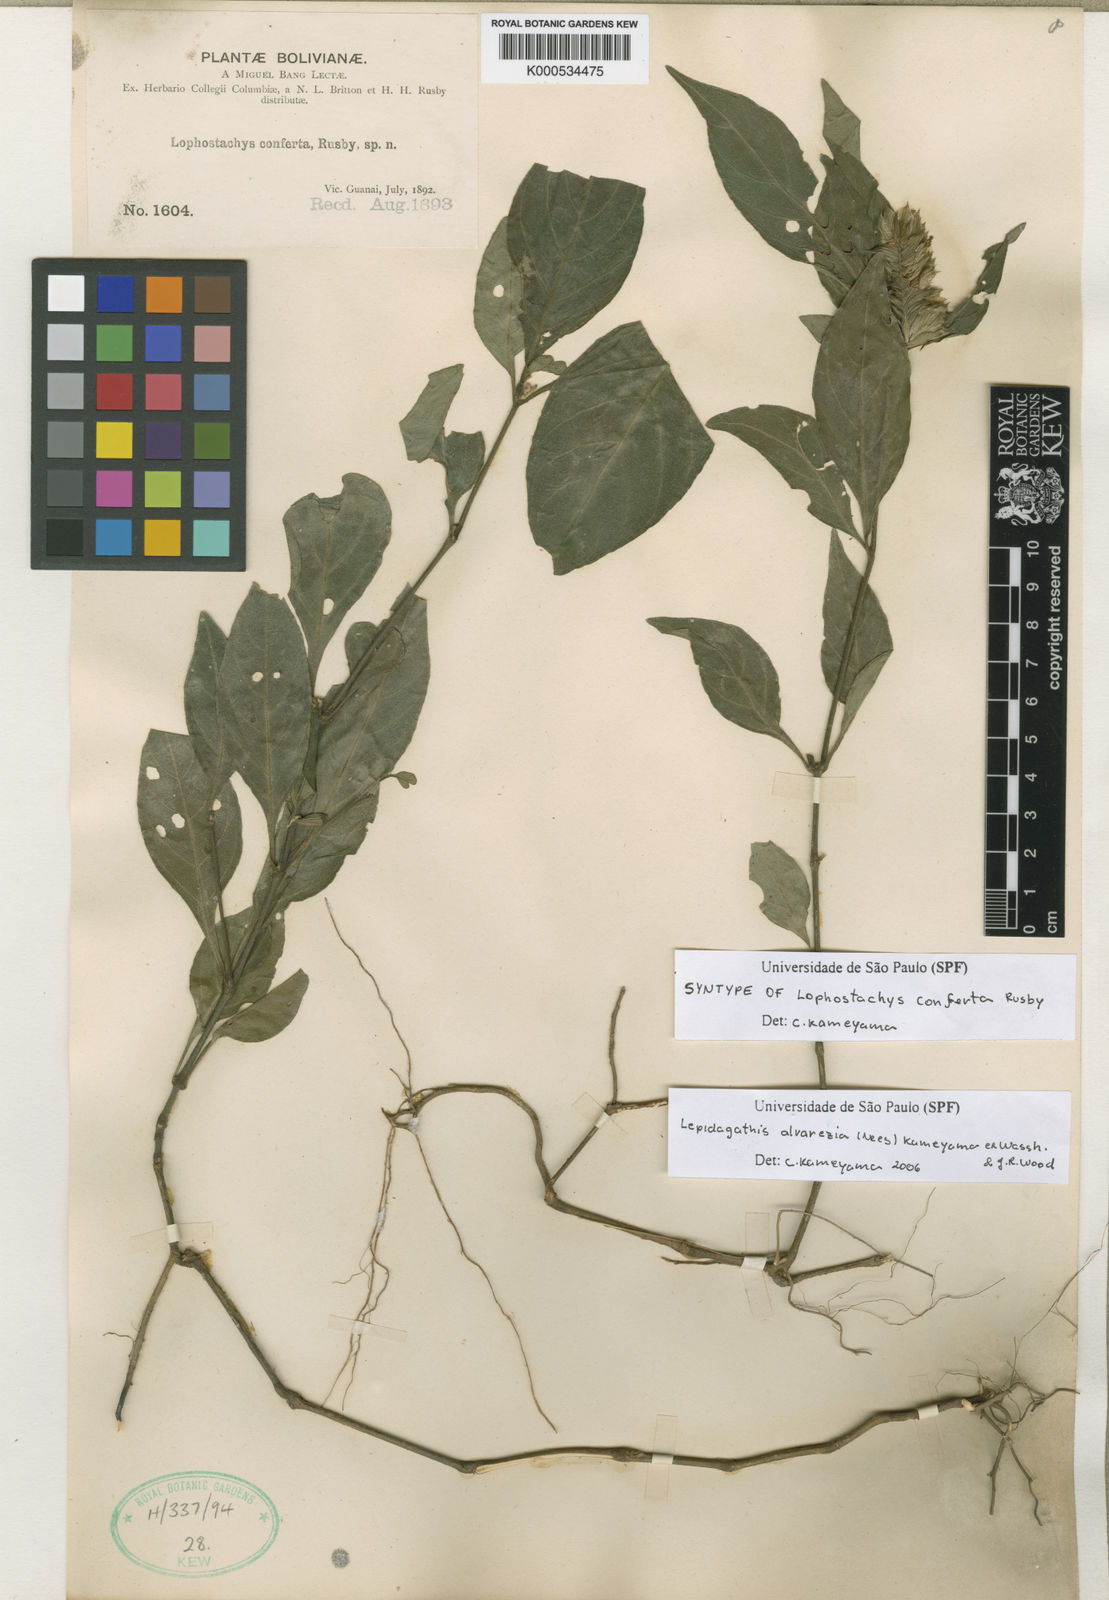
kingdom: Plantae
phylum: Tracheophyta
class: Magnoliopsida
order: Lamiales
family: Acanthaceae
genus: Lepidagathis
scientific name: Lepidagathis alvarezia
